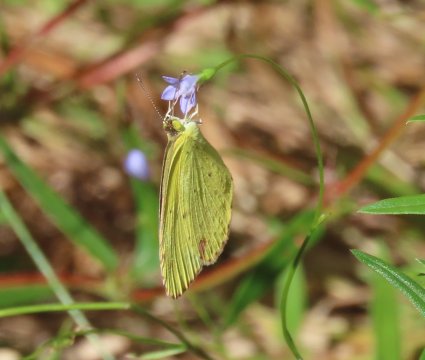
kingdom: Animalia
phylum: Arthropoda
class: Insecta
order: Lepidoptera
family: Pieridae
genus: Pyrisitia
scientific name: Pyrisitia lisa
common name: Little Yellow
